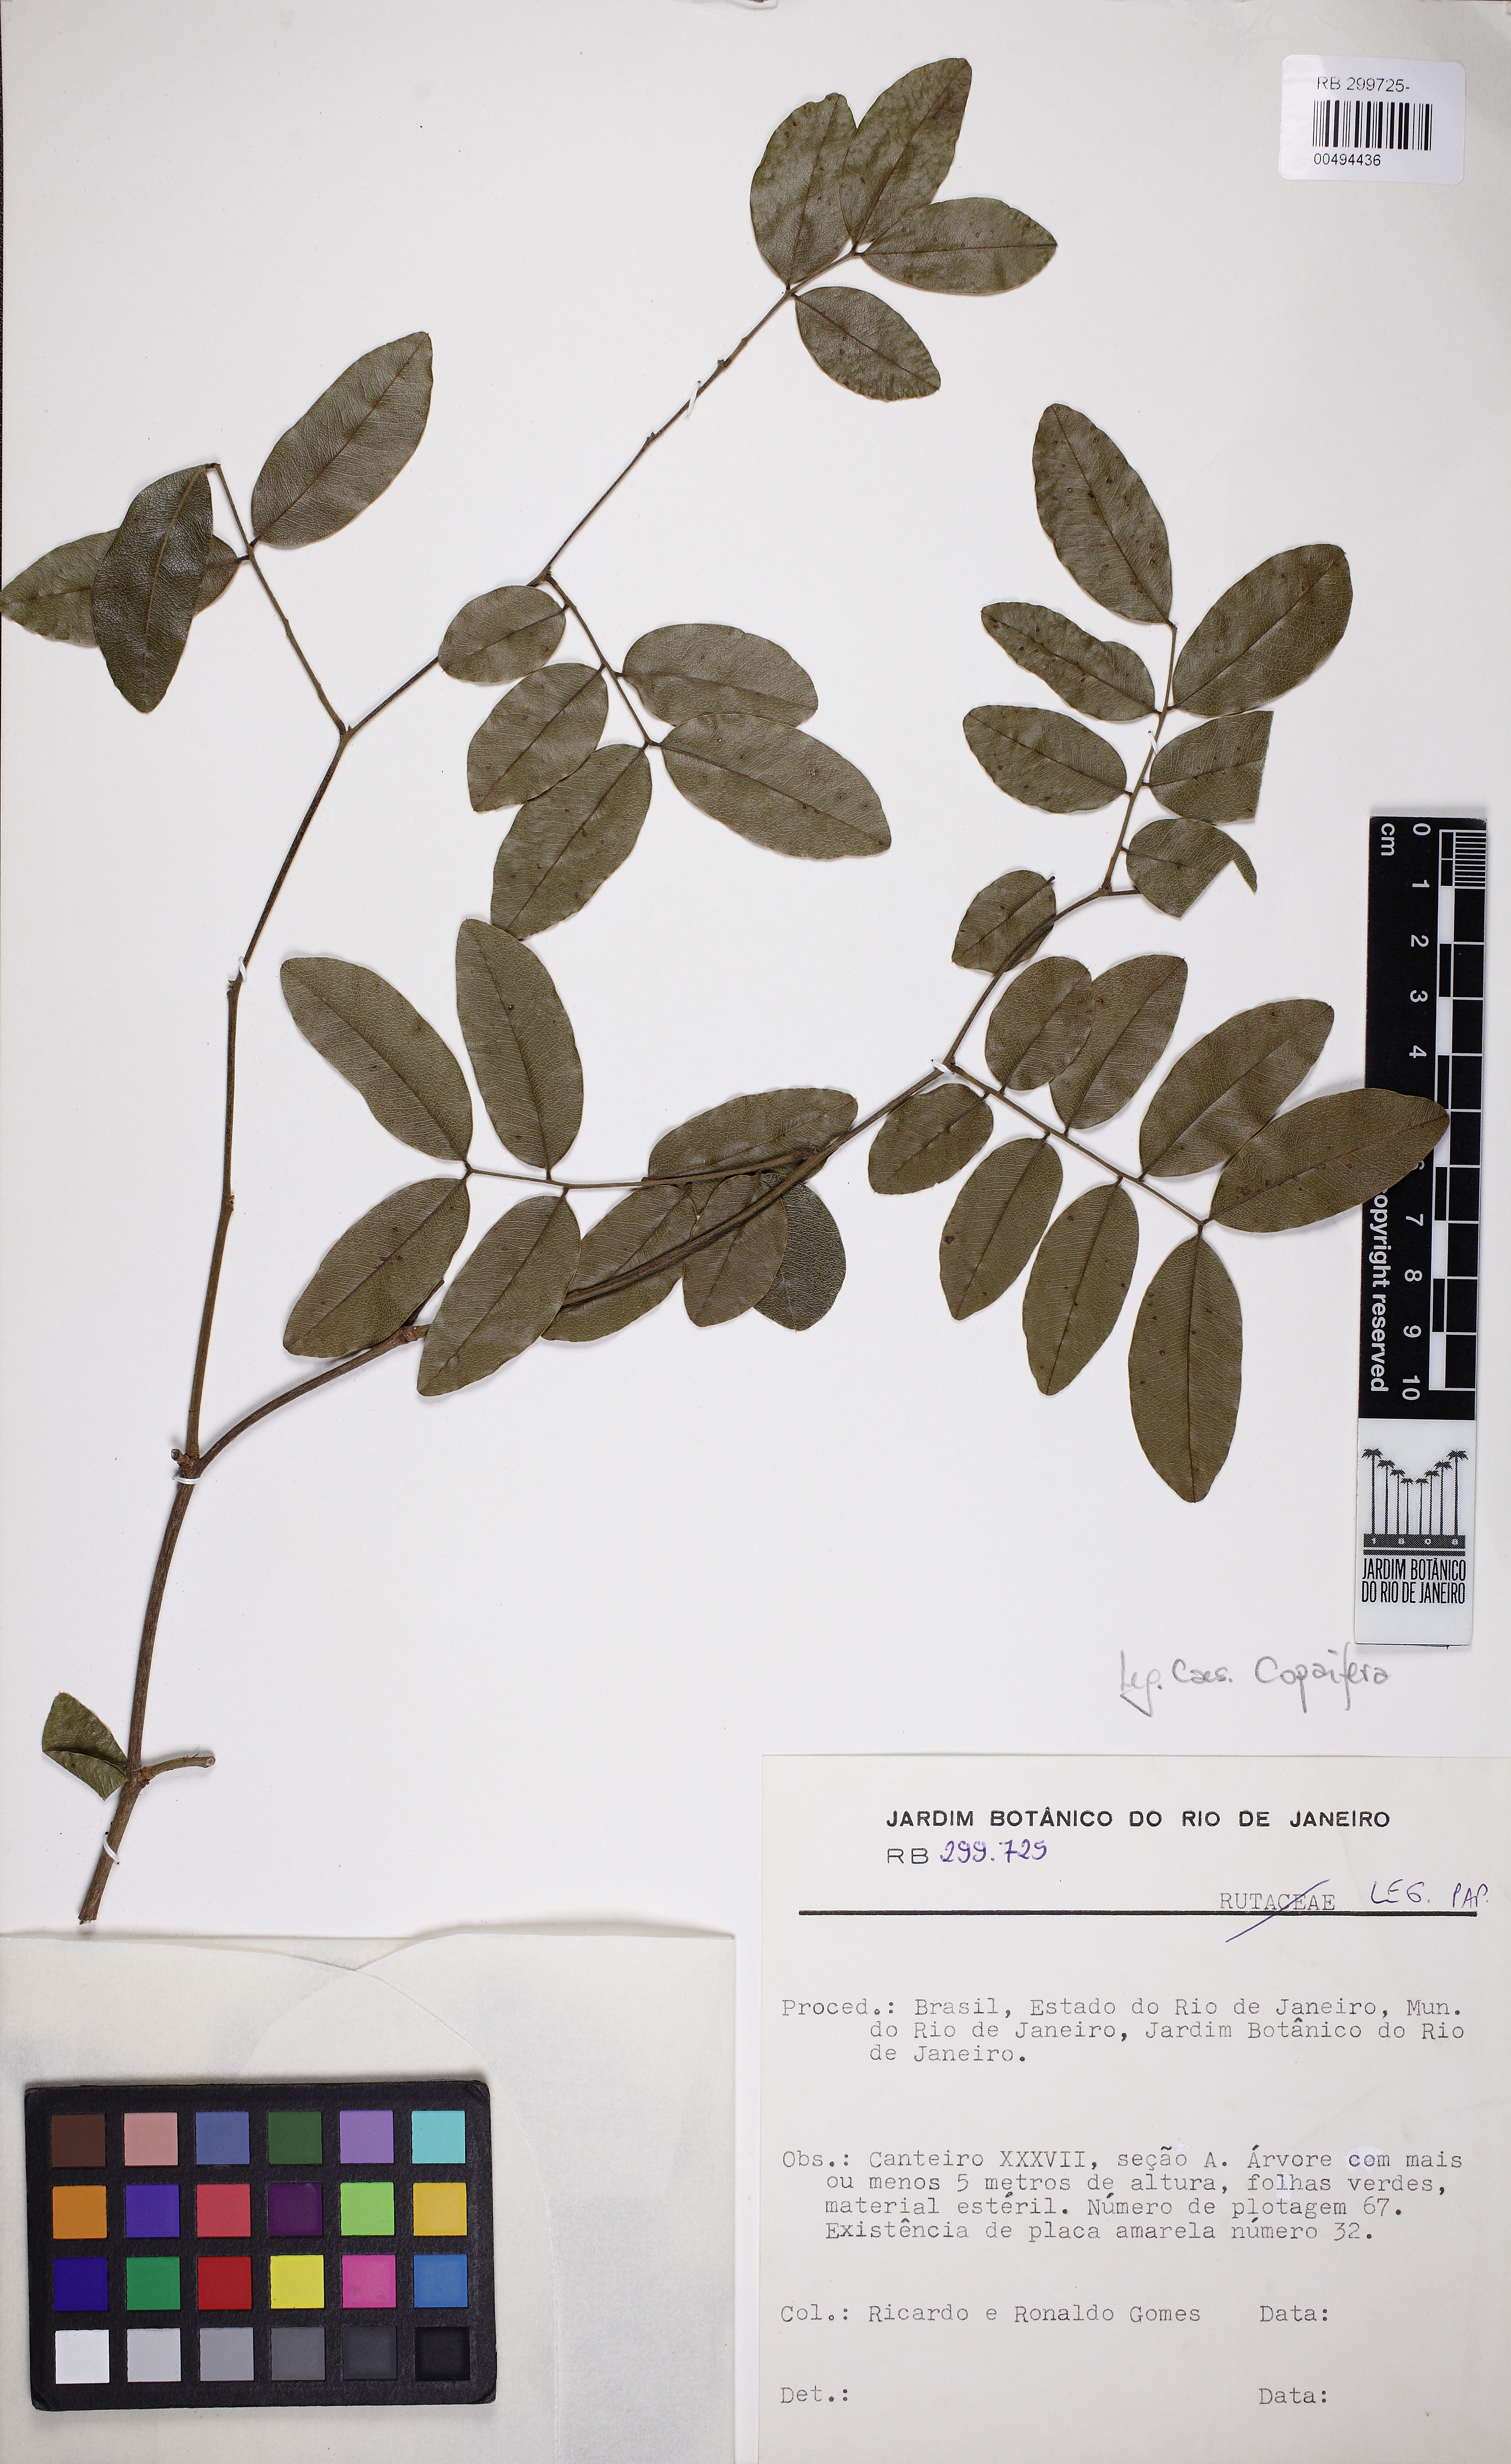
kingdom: Plantae
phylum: Tracheophyta
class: Magnoliopsida
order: Fabales
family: Fabaceae
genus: Copaifera
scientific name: Copaifera
